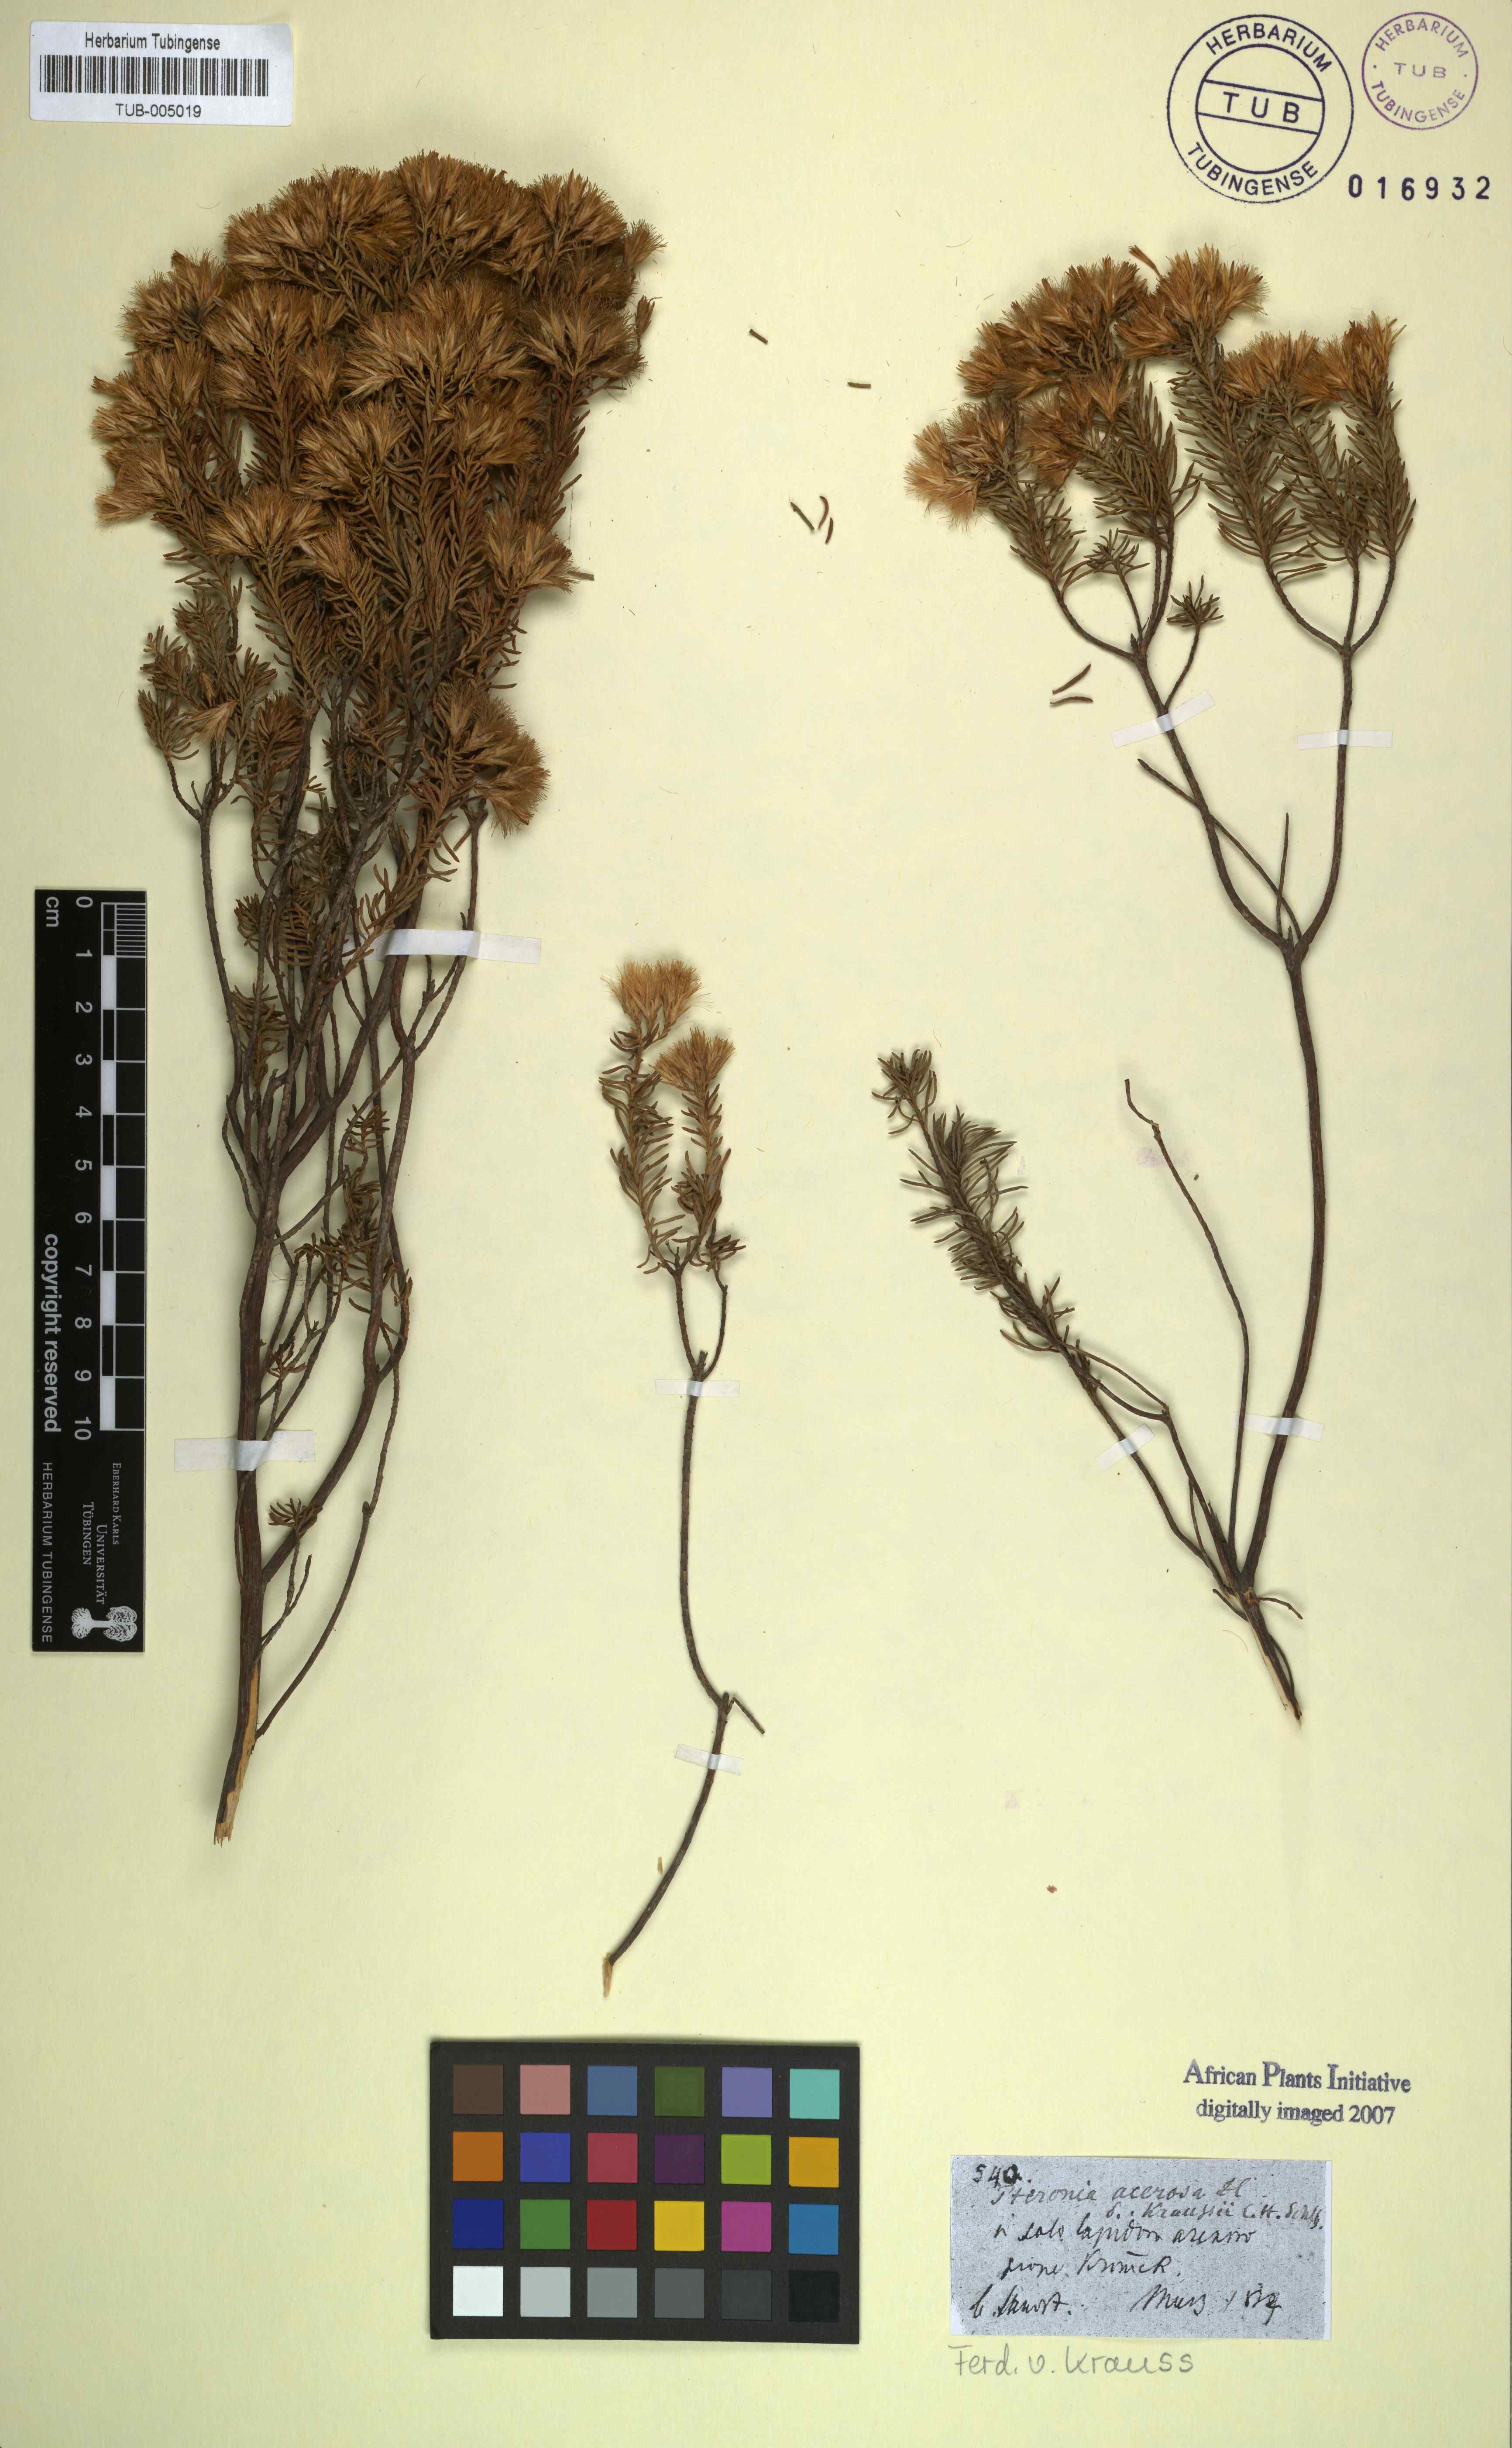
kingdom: Plantae
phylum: Tracheophyta
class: Magnoliopsida
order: Asterales
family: Asteraceae
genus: Pteronia
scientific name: Pteronia teretifolia
